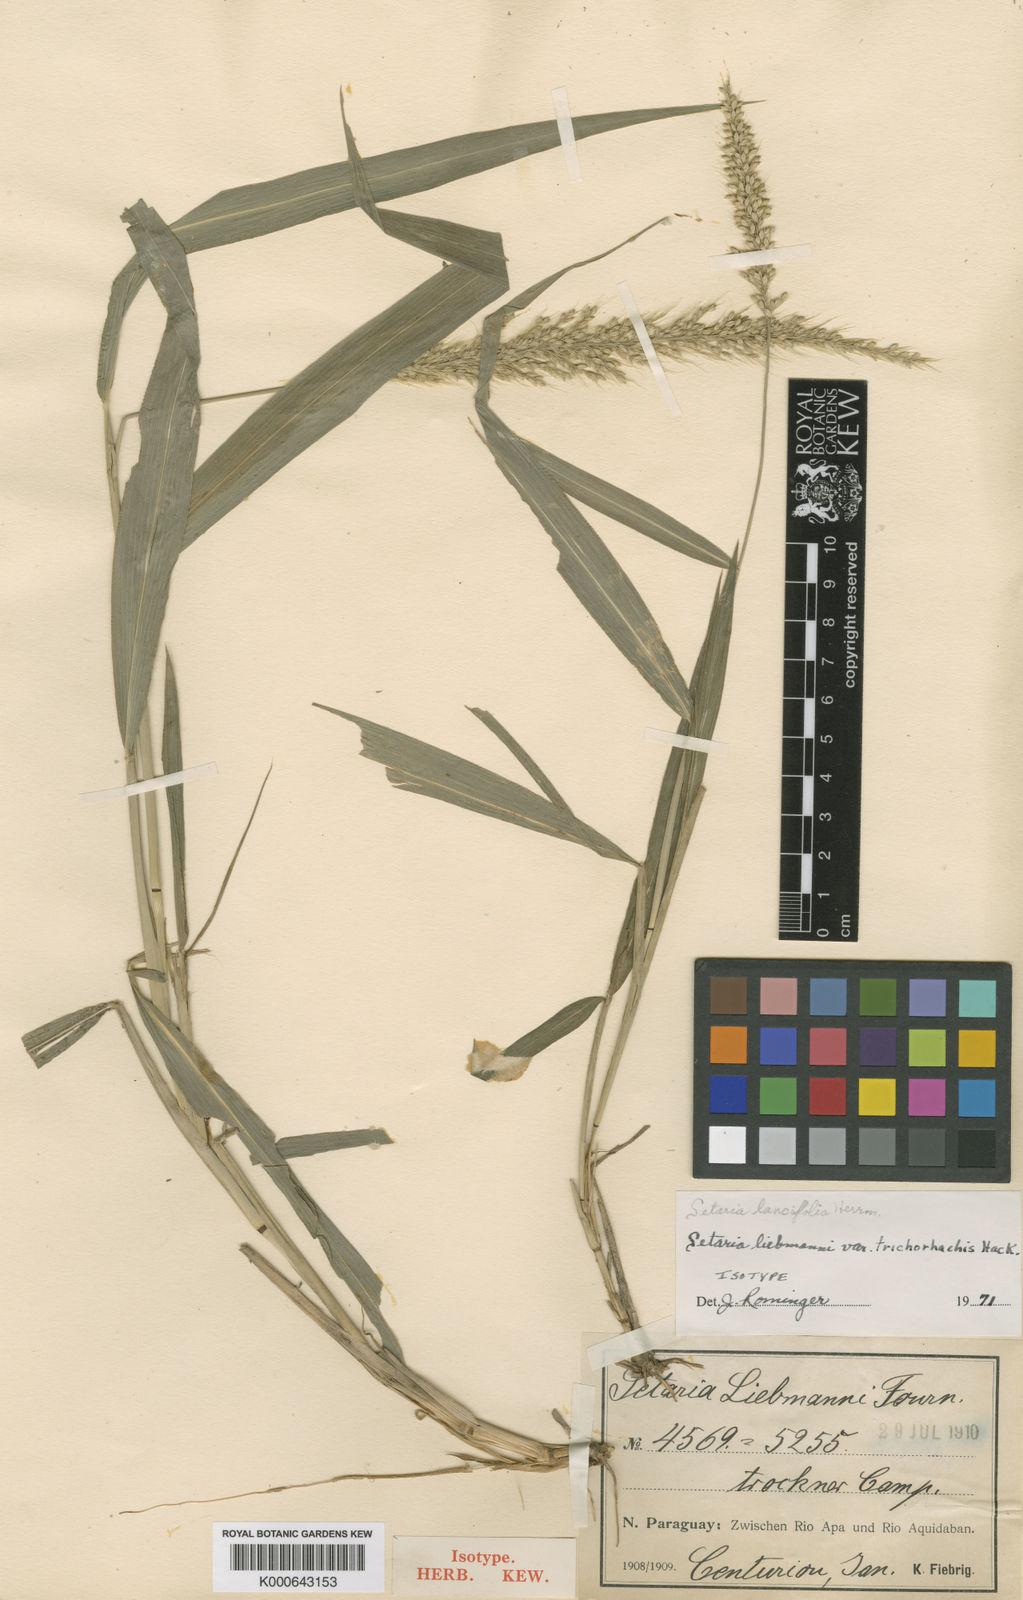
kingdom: Plantae
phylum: Tracheophyta
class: Liliopsida
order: Poales
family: Poaceae
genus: Setaria
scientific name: Setaria vulpiseta
